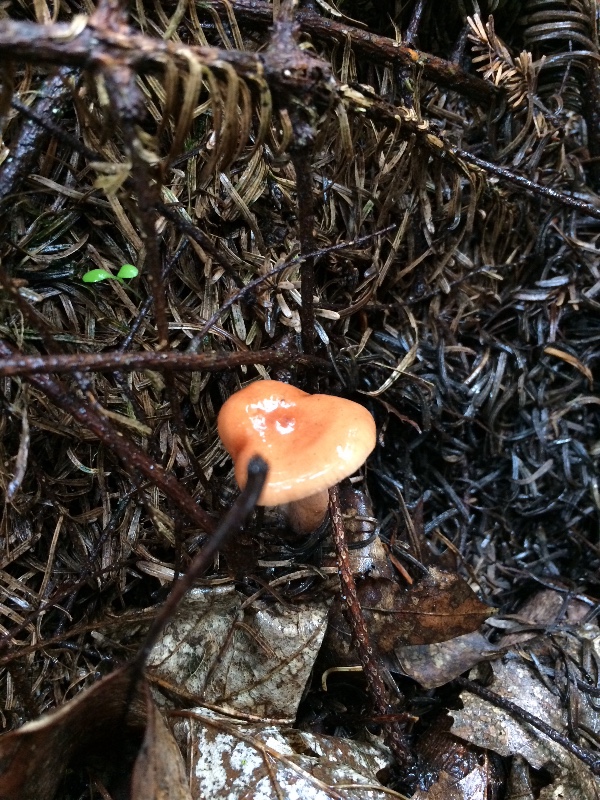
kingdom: Fungi
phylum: Basidiomycota
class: Agaricomycetes
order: Russulales
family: Russulaceae
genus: Lactarius
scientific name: Lactarius tabidus
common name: rynket mælkehat
